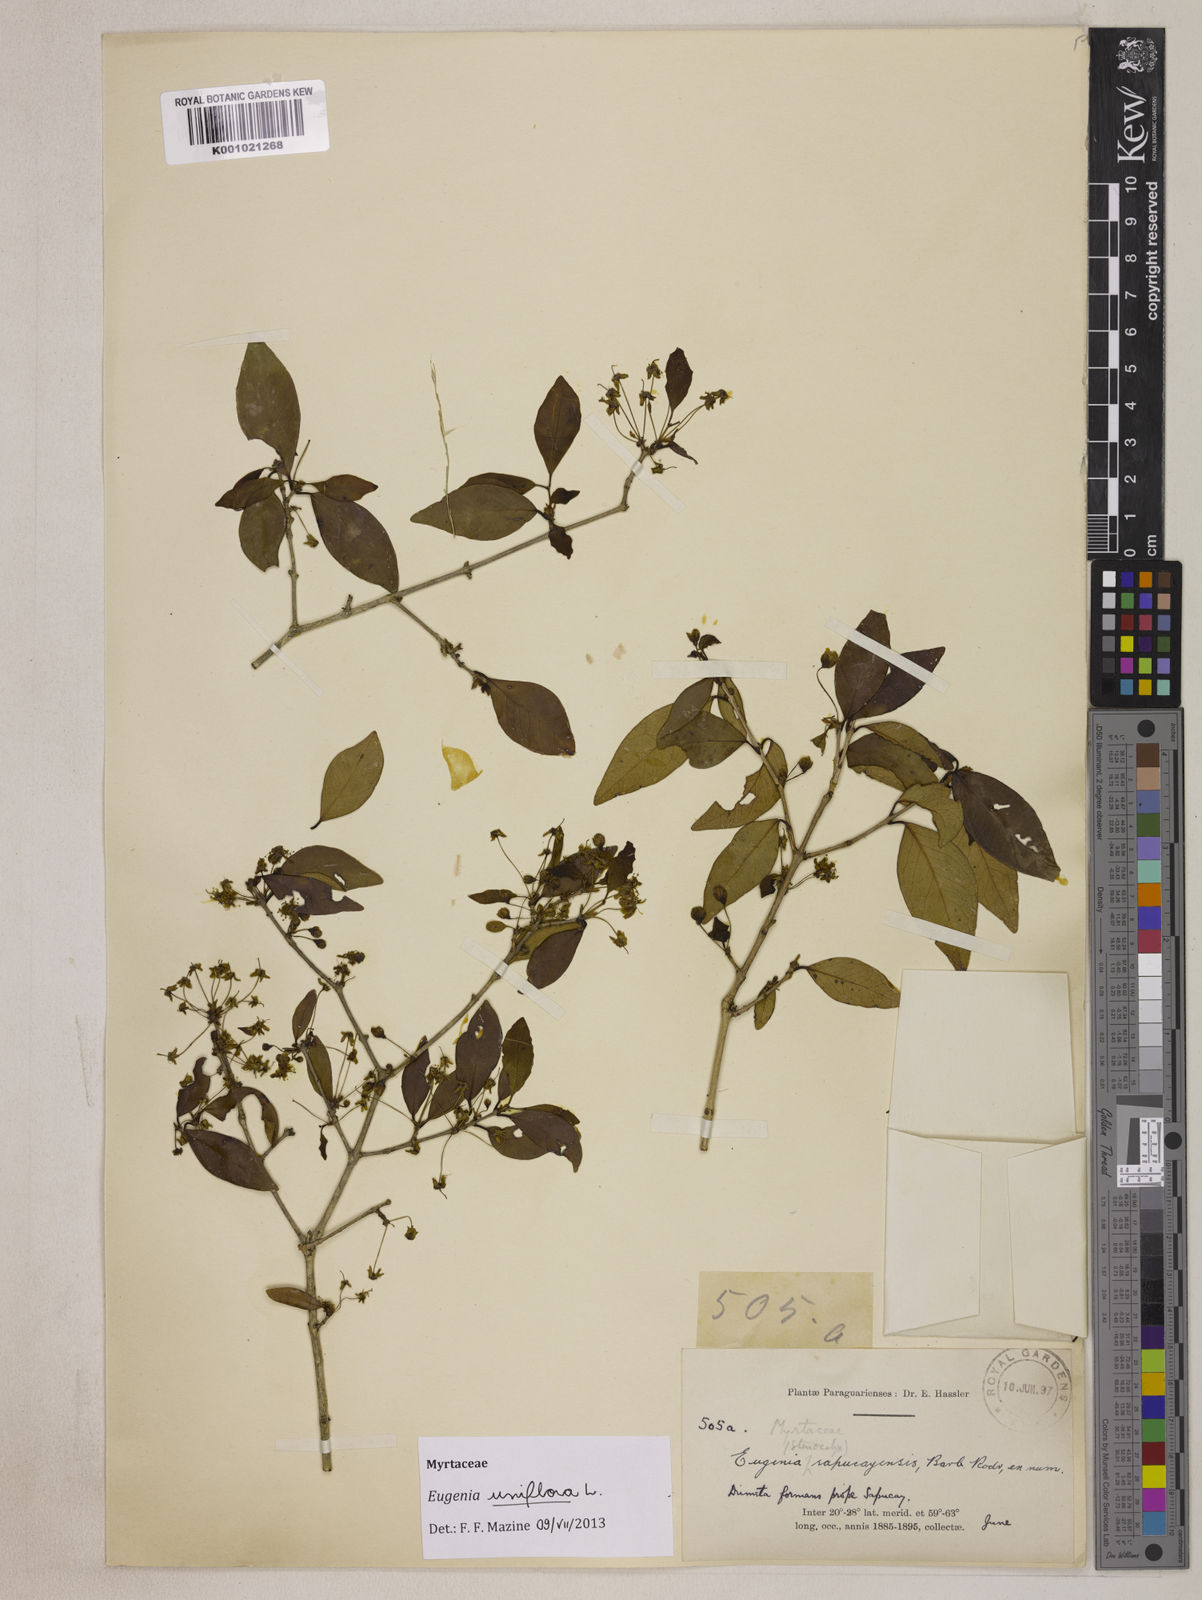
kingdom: Plantae
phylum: Tracheophyta
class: Magnoliopsida
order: Myrtales
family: Myrtaceae
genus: Eugenia
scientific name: Eugenia uniflora
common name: Surinam cherry
